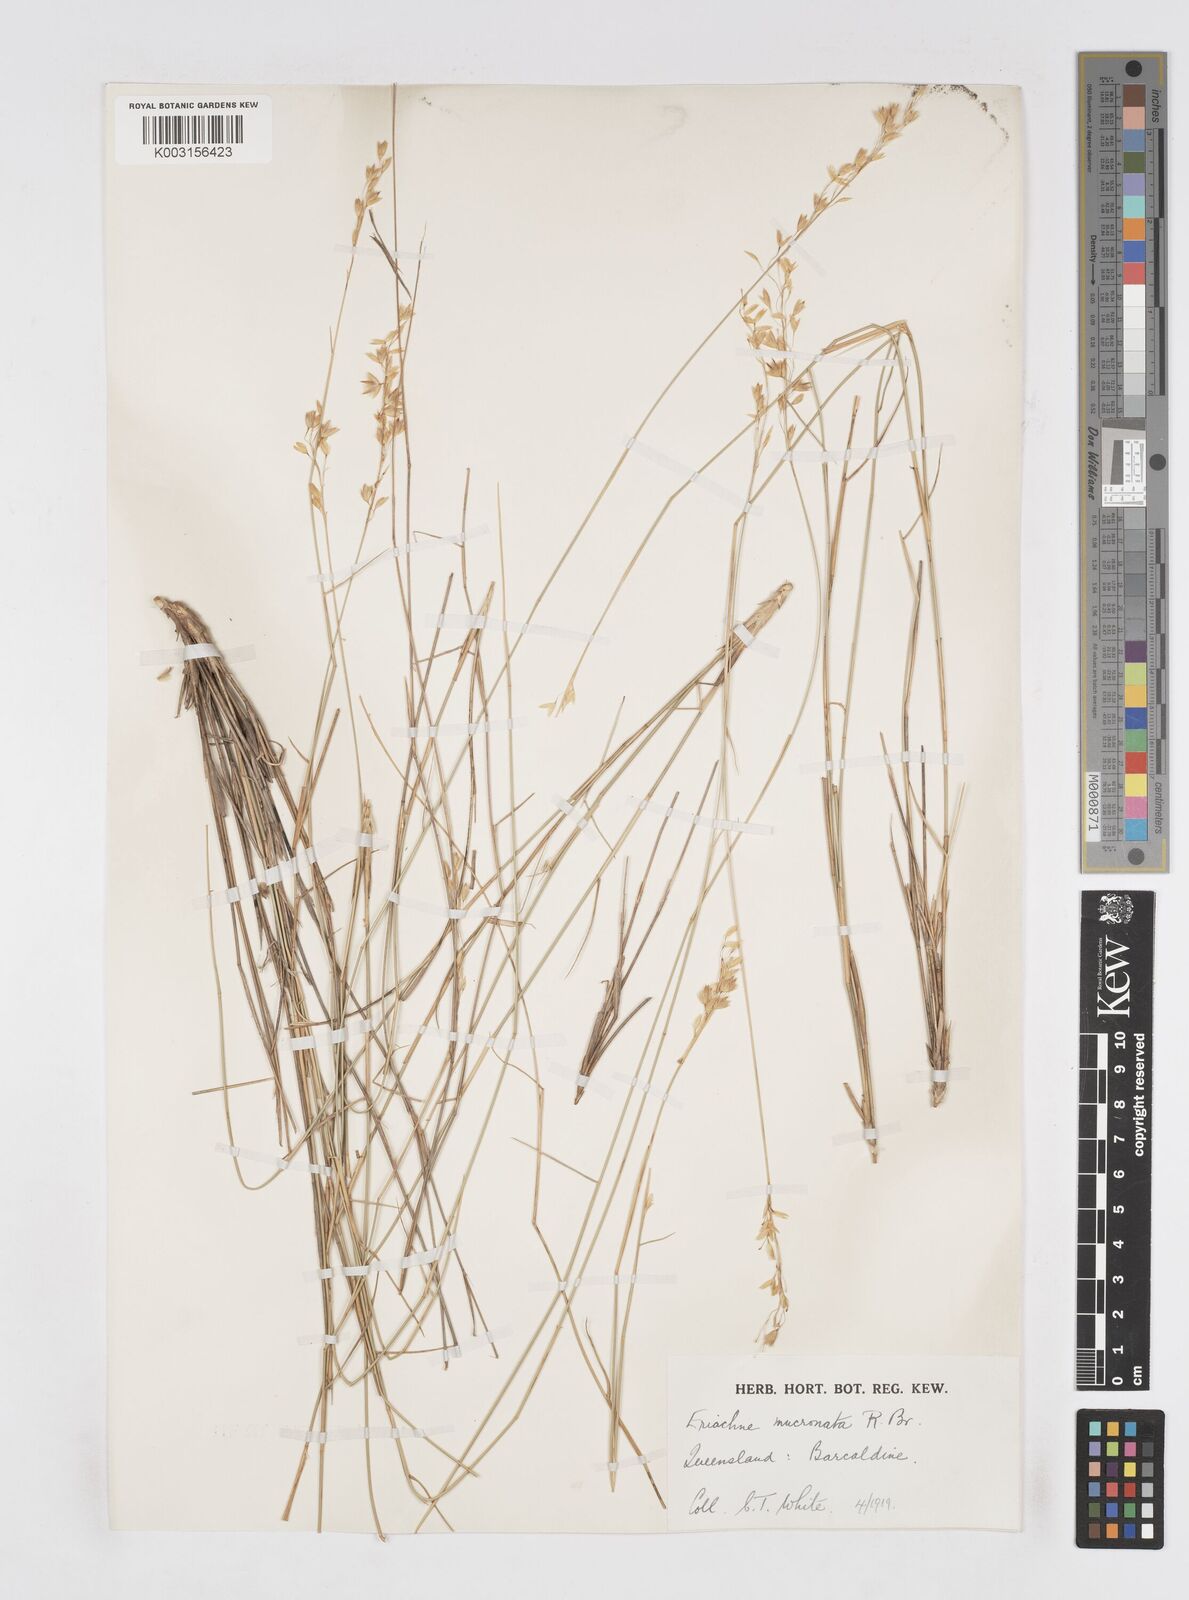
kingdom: Plantae
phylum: Tracheophyta
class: Liliopsida
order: Poales
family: Poaceae
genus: Eriachne
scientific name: Eriachne mucronata
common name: Mountain wanderrie grass
